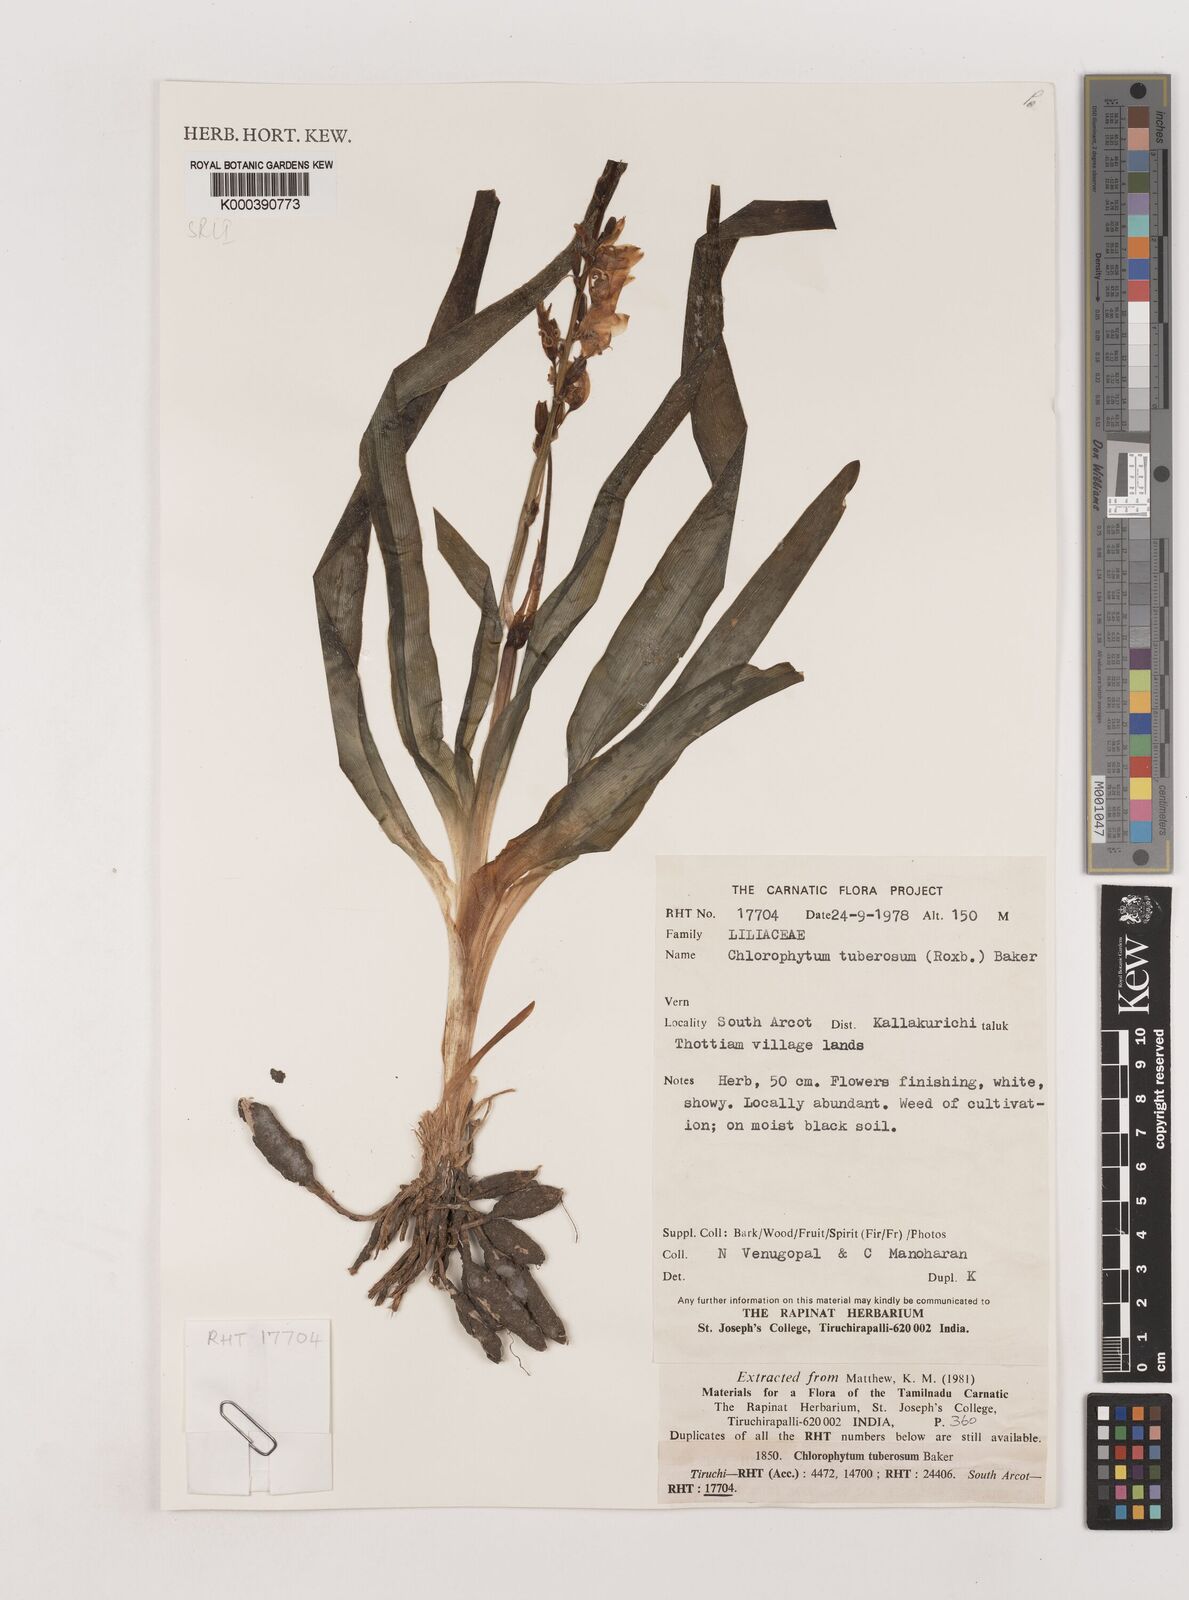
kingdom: Plantae
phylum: Tracheophyta
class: Liliopsida
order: Asparagales
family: Asparagaceae
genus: Chlorophytum
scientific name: Chlorophytum tuberosum
